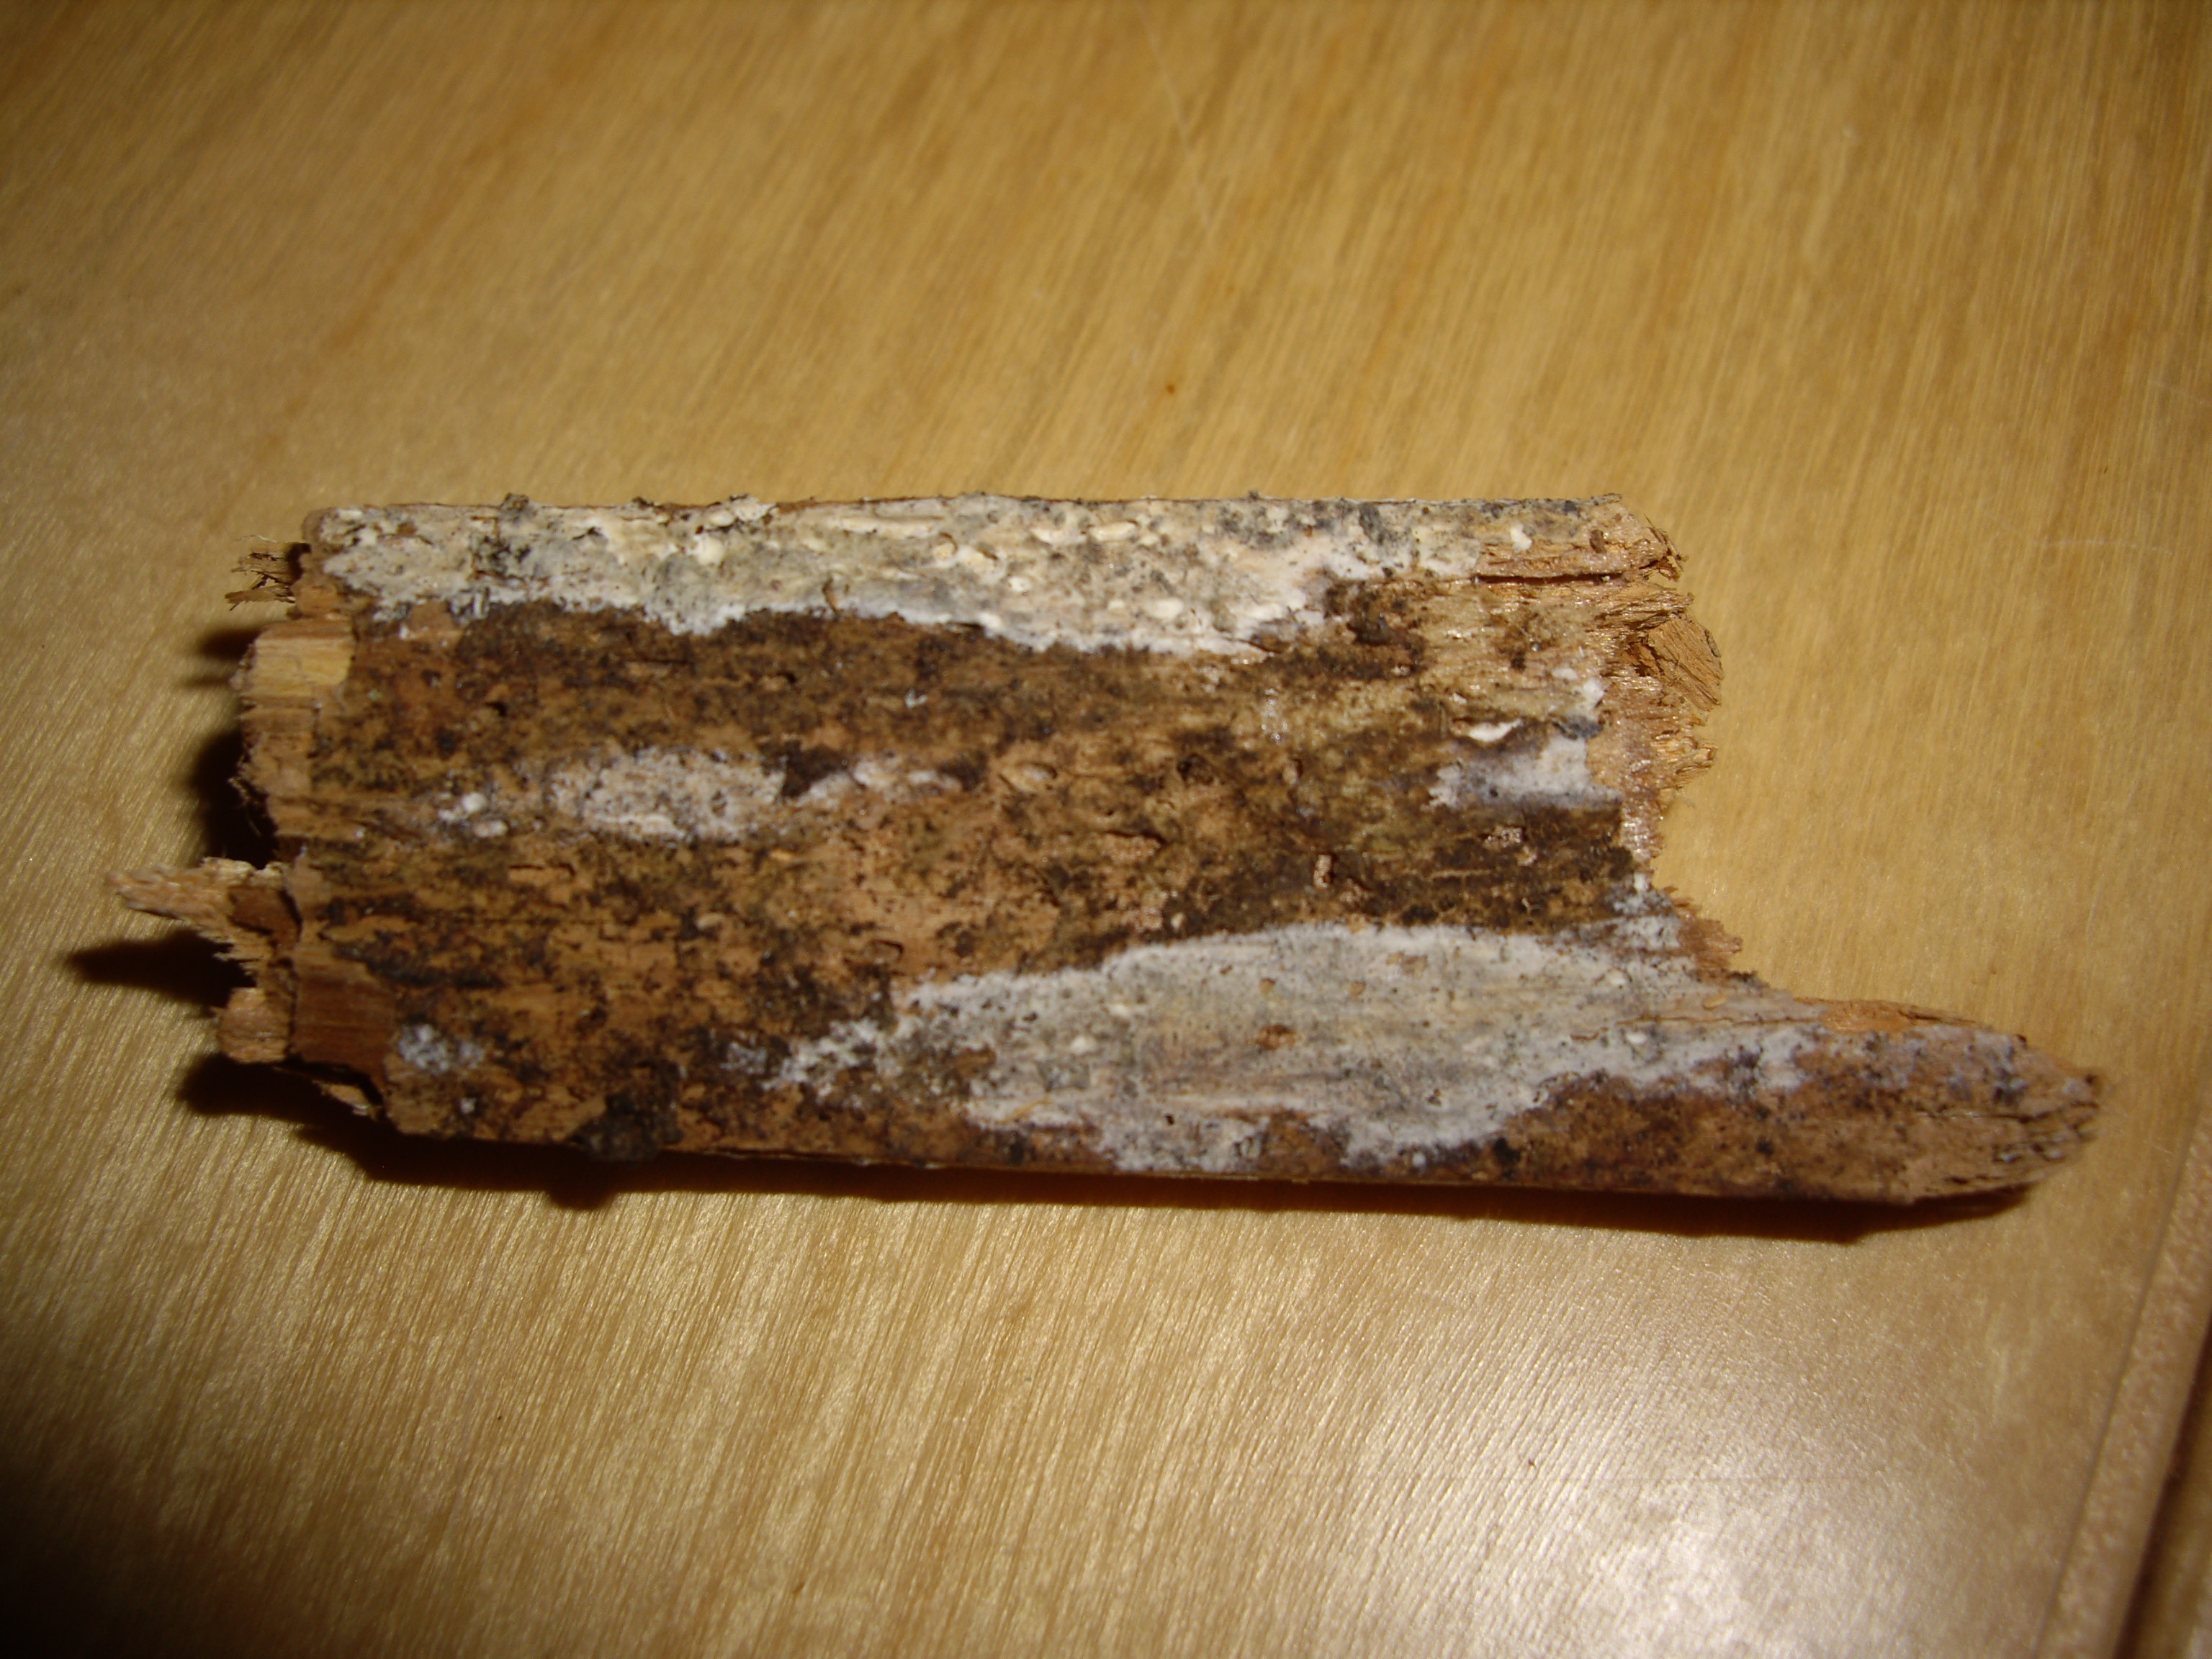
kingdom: Fungi
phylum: Basidiomycota
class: Agaricomycetes
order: Polyporales
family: Steccherinaceae
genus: Cabalodontia
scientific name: Cabalodontia subcretacea
